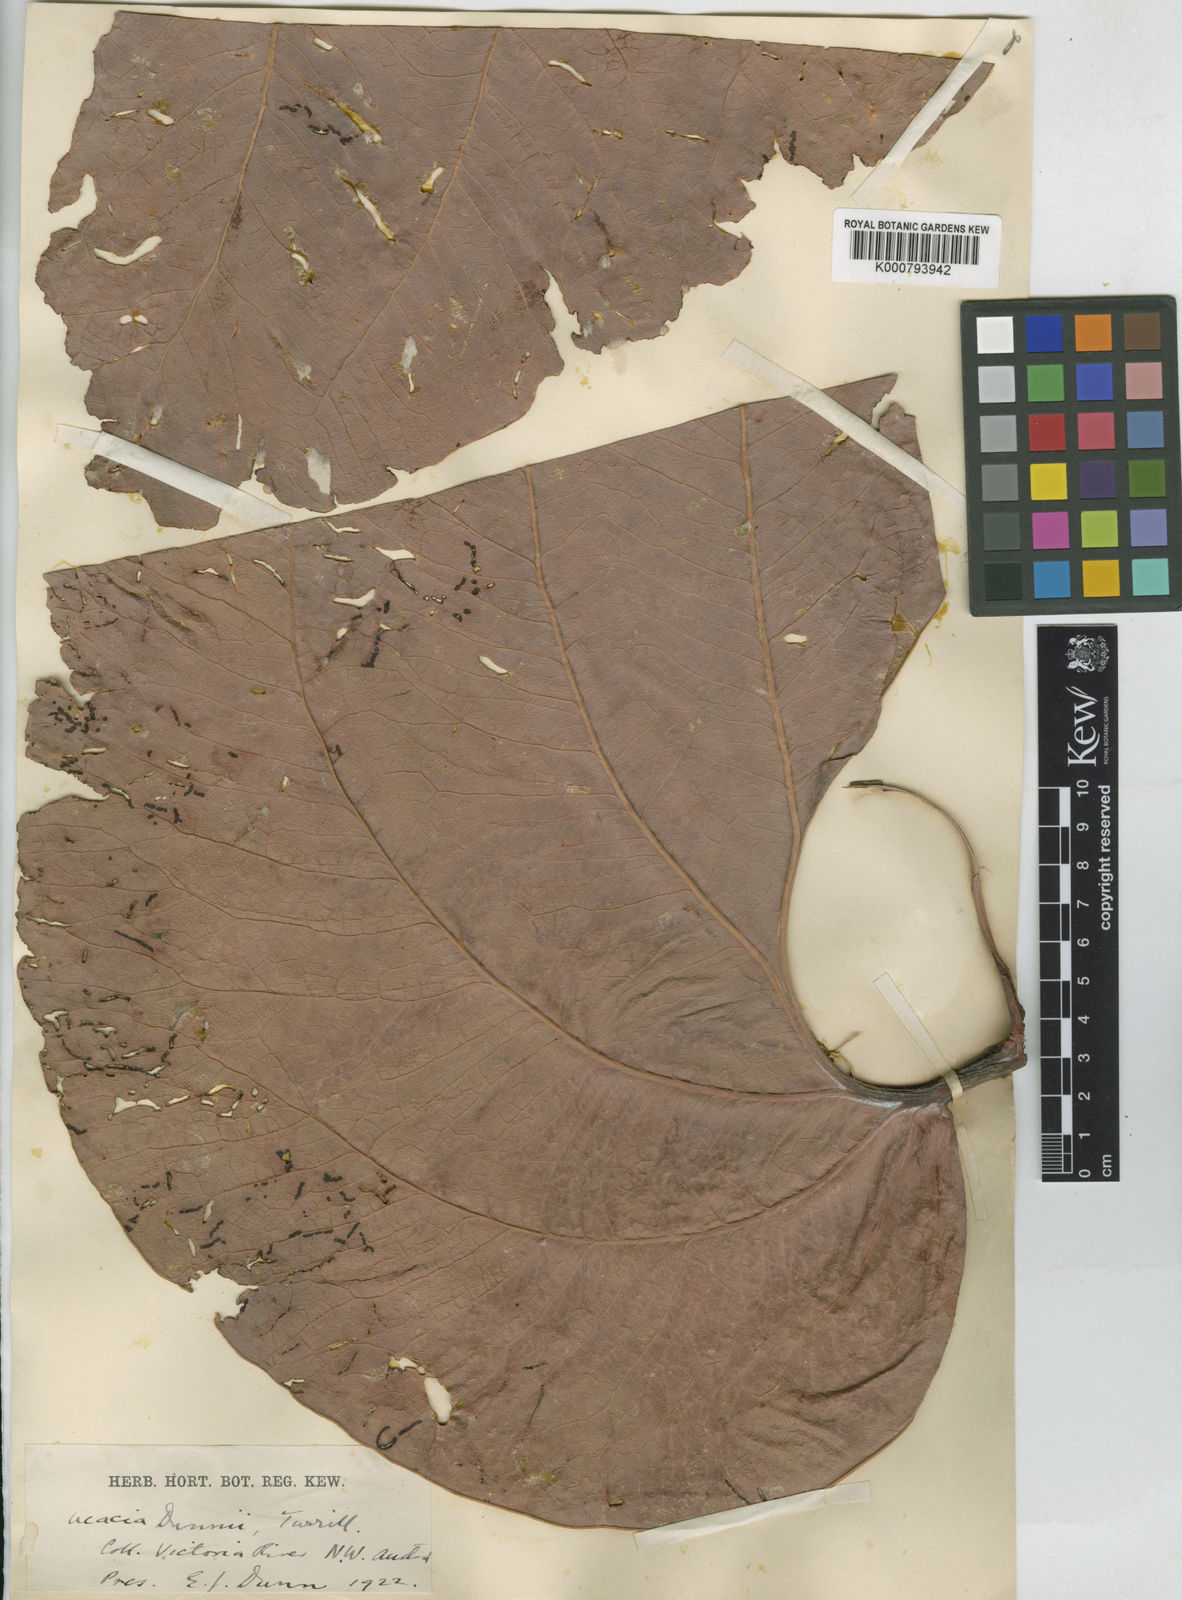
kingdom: Plantae
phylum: Tracheophyta
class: Magnoliopsida
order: Fabales
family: Fabaceae
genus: Acacia
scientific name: Acacia dunnii
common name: Elephant's-ear wattle
